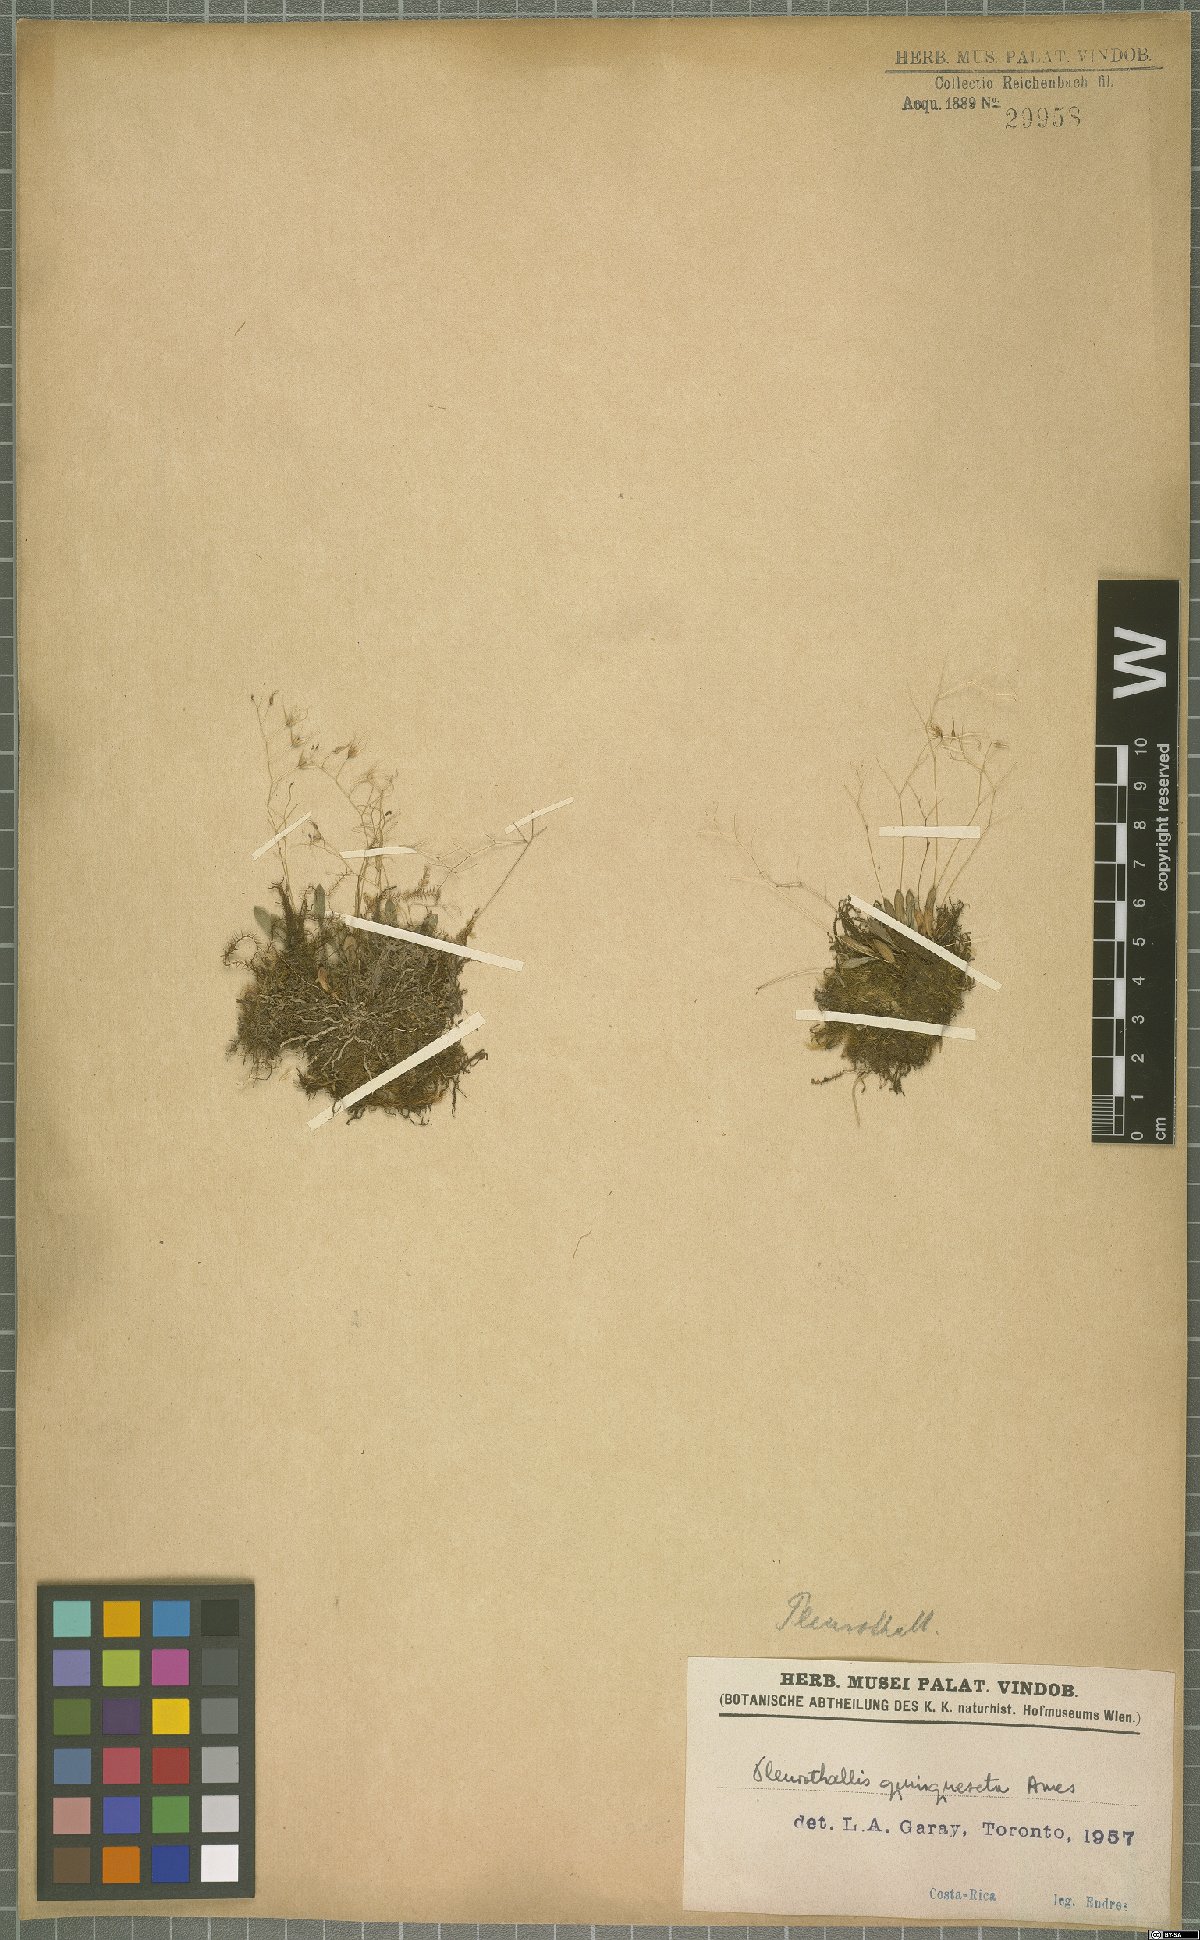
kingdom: Plantae
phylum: Tracheophyta
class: Liliopsida
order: Asparagales
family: Orchidaceae
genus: Muscarella
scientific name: Muscarella quinqueseta
